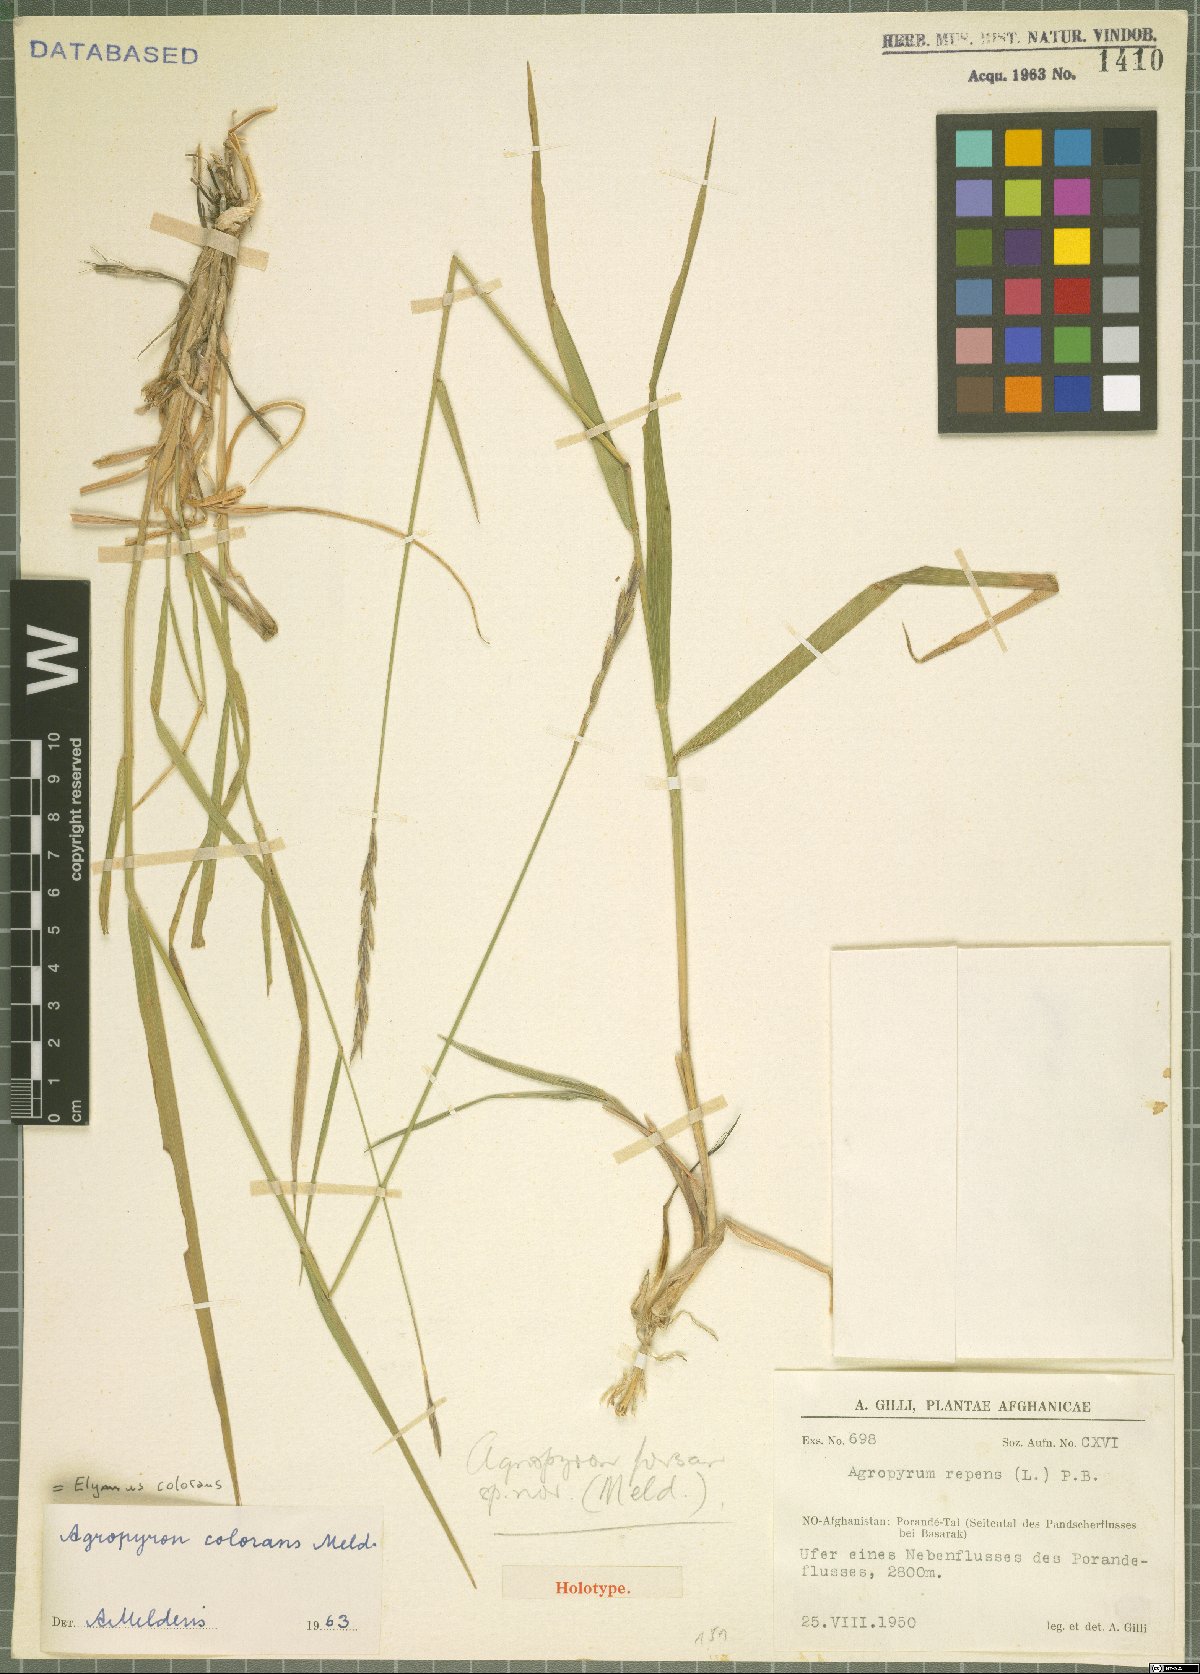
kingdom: Plantae
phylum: Tracheophyta
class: Liliopsida
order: Poales
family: Poaceae
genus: Elymus
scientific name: Elymus colorans
